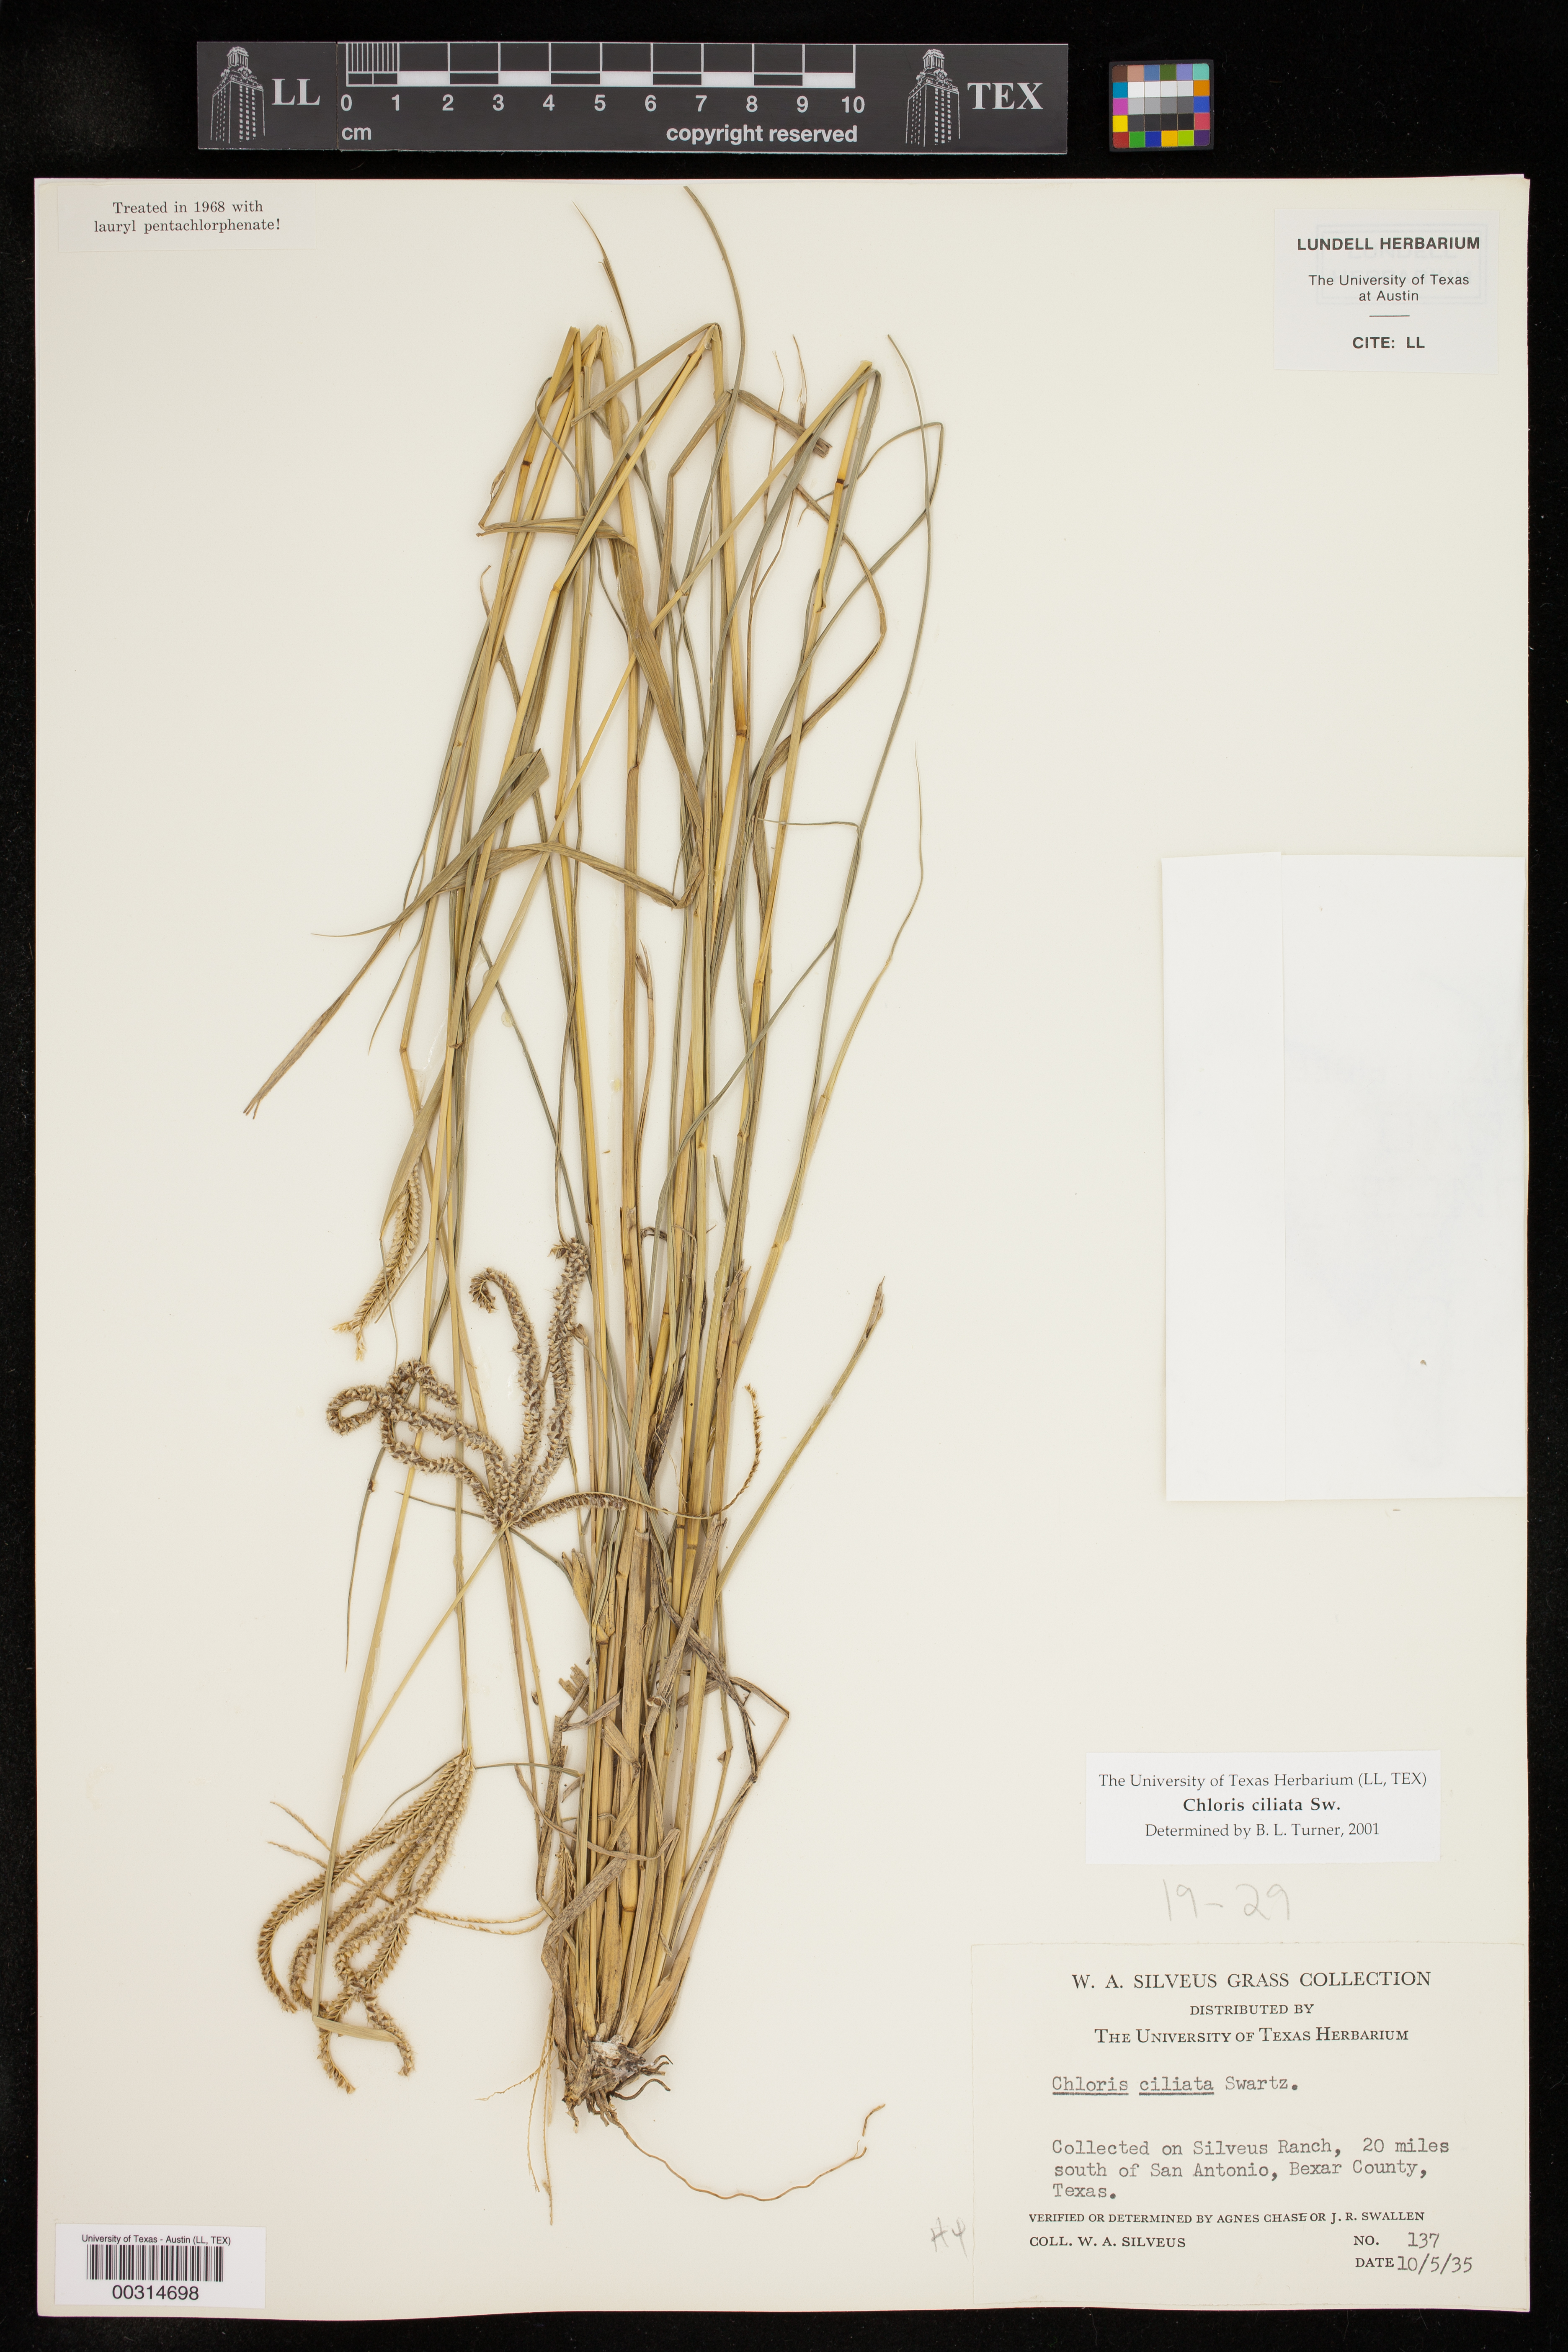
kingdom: Plantae
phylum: Tracheophyta
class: Liliopsida
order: Poales
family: Poaceae
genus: Stapfochloa
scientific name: Stapfochloa ciliata
